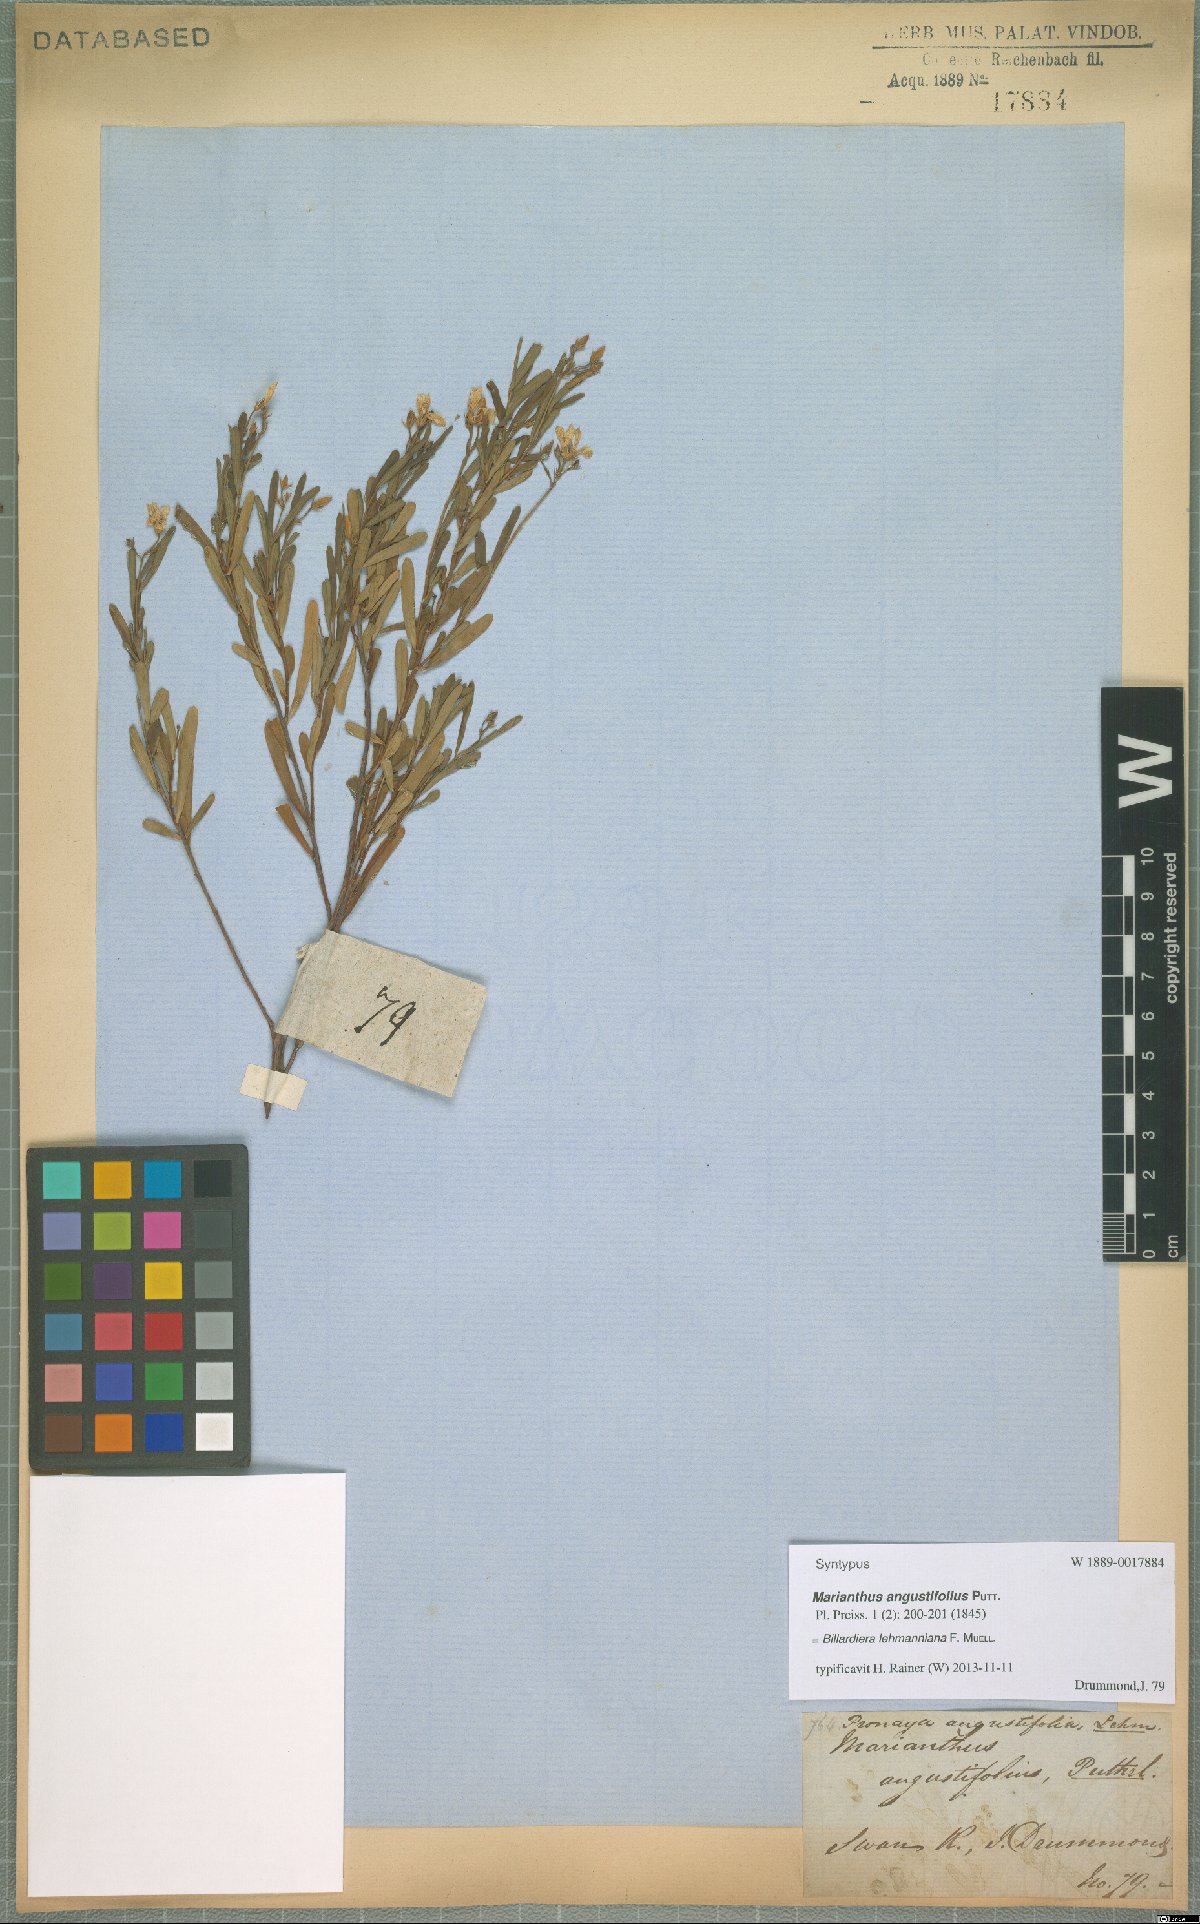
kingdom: Plantae
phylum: Tracheophyta
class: Magnoliopsida
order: Apiales
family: Pittosporaceae
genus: Billardiera
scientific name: Billardiera lehmanniana
